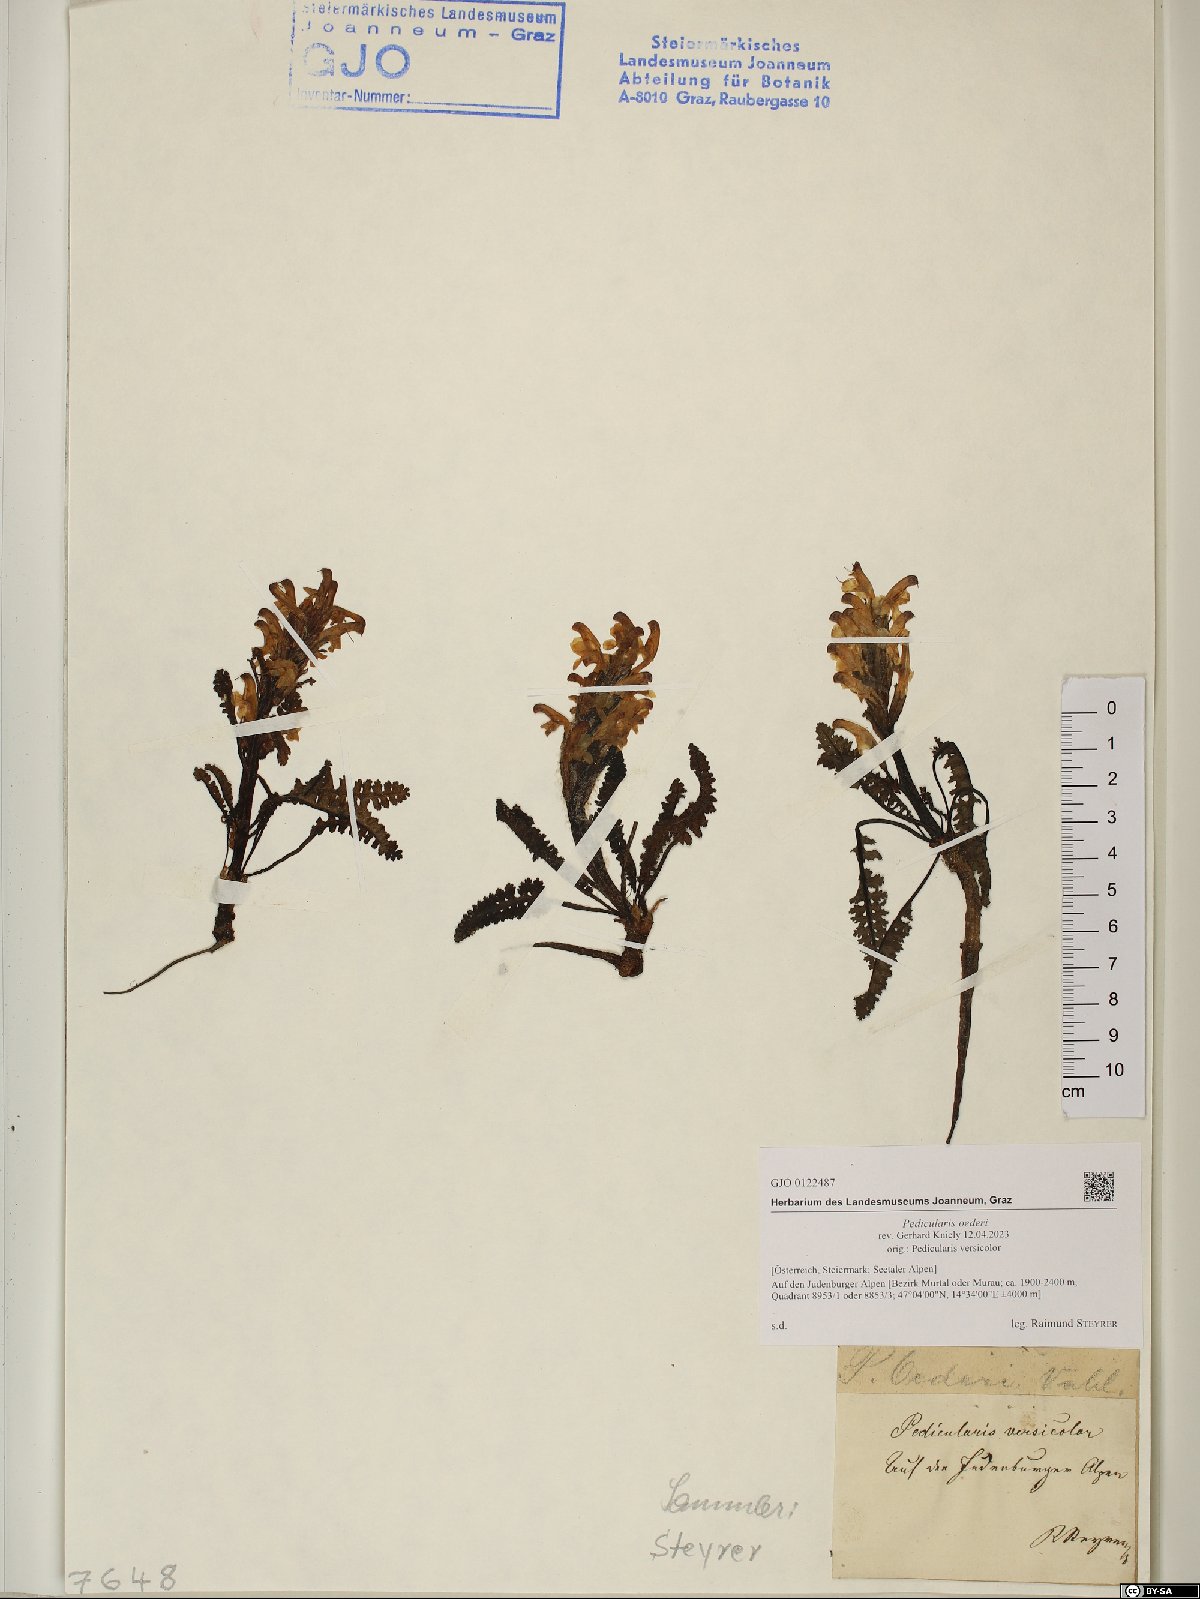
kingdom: Plantae
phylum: Tracheophyta
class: Magnoliopsida
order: Lamiales
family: Orobanchaceae
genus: Pedicularis
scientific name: Pedicularis oederi
